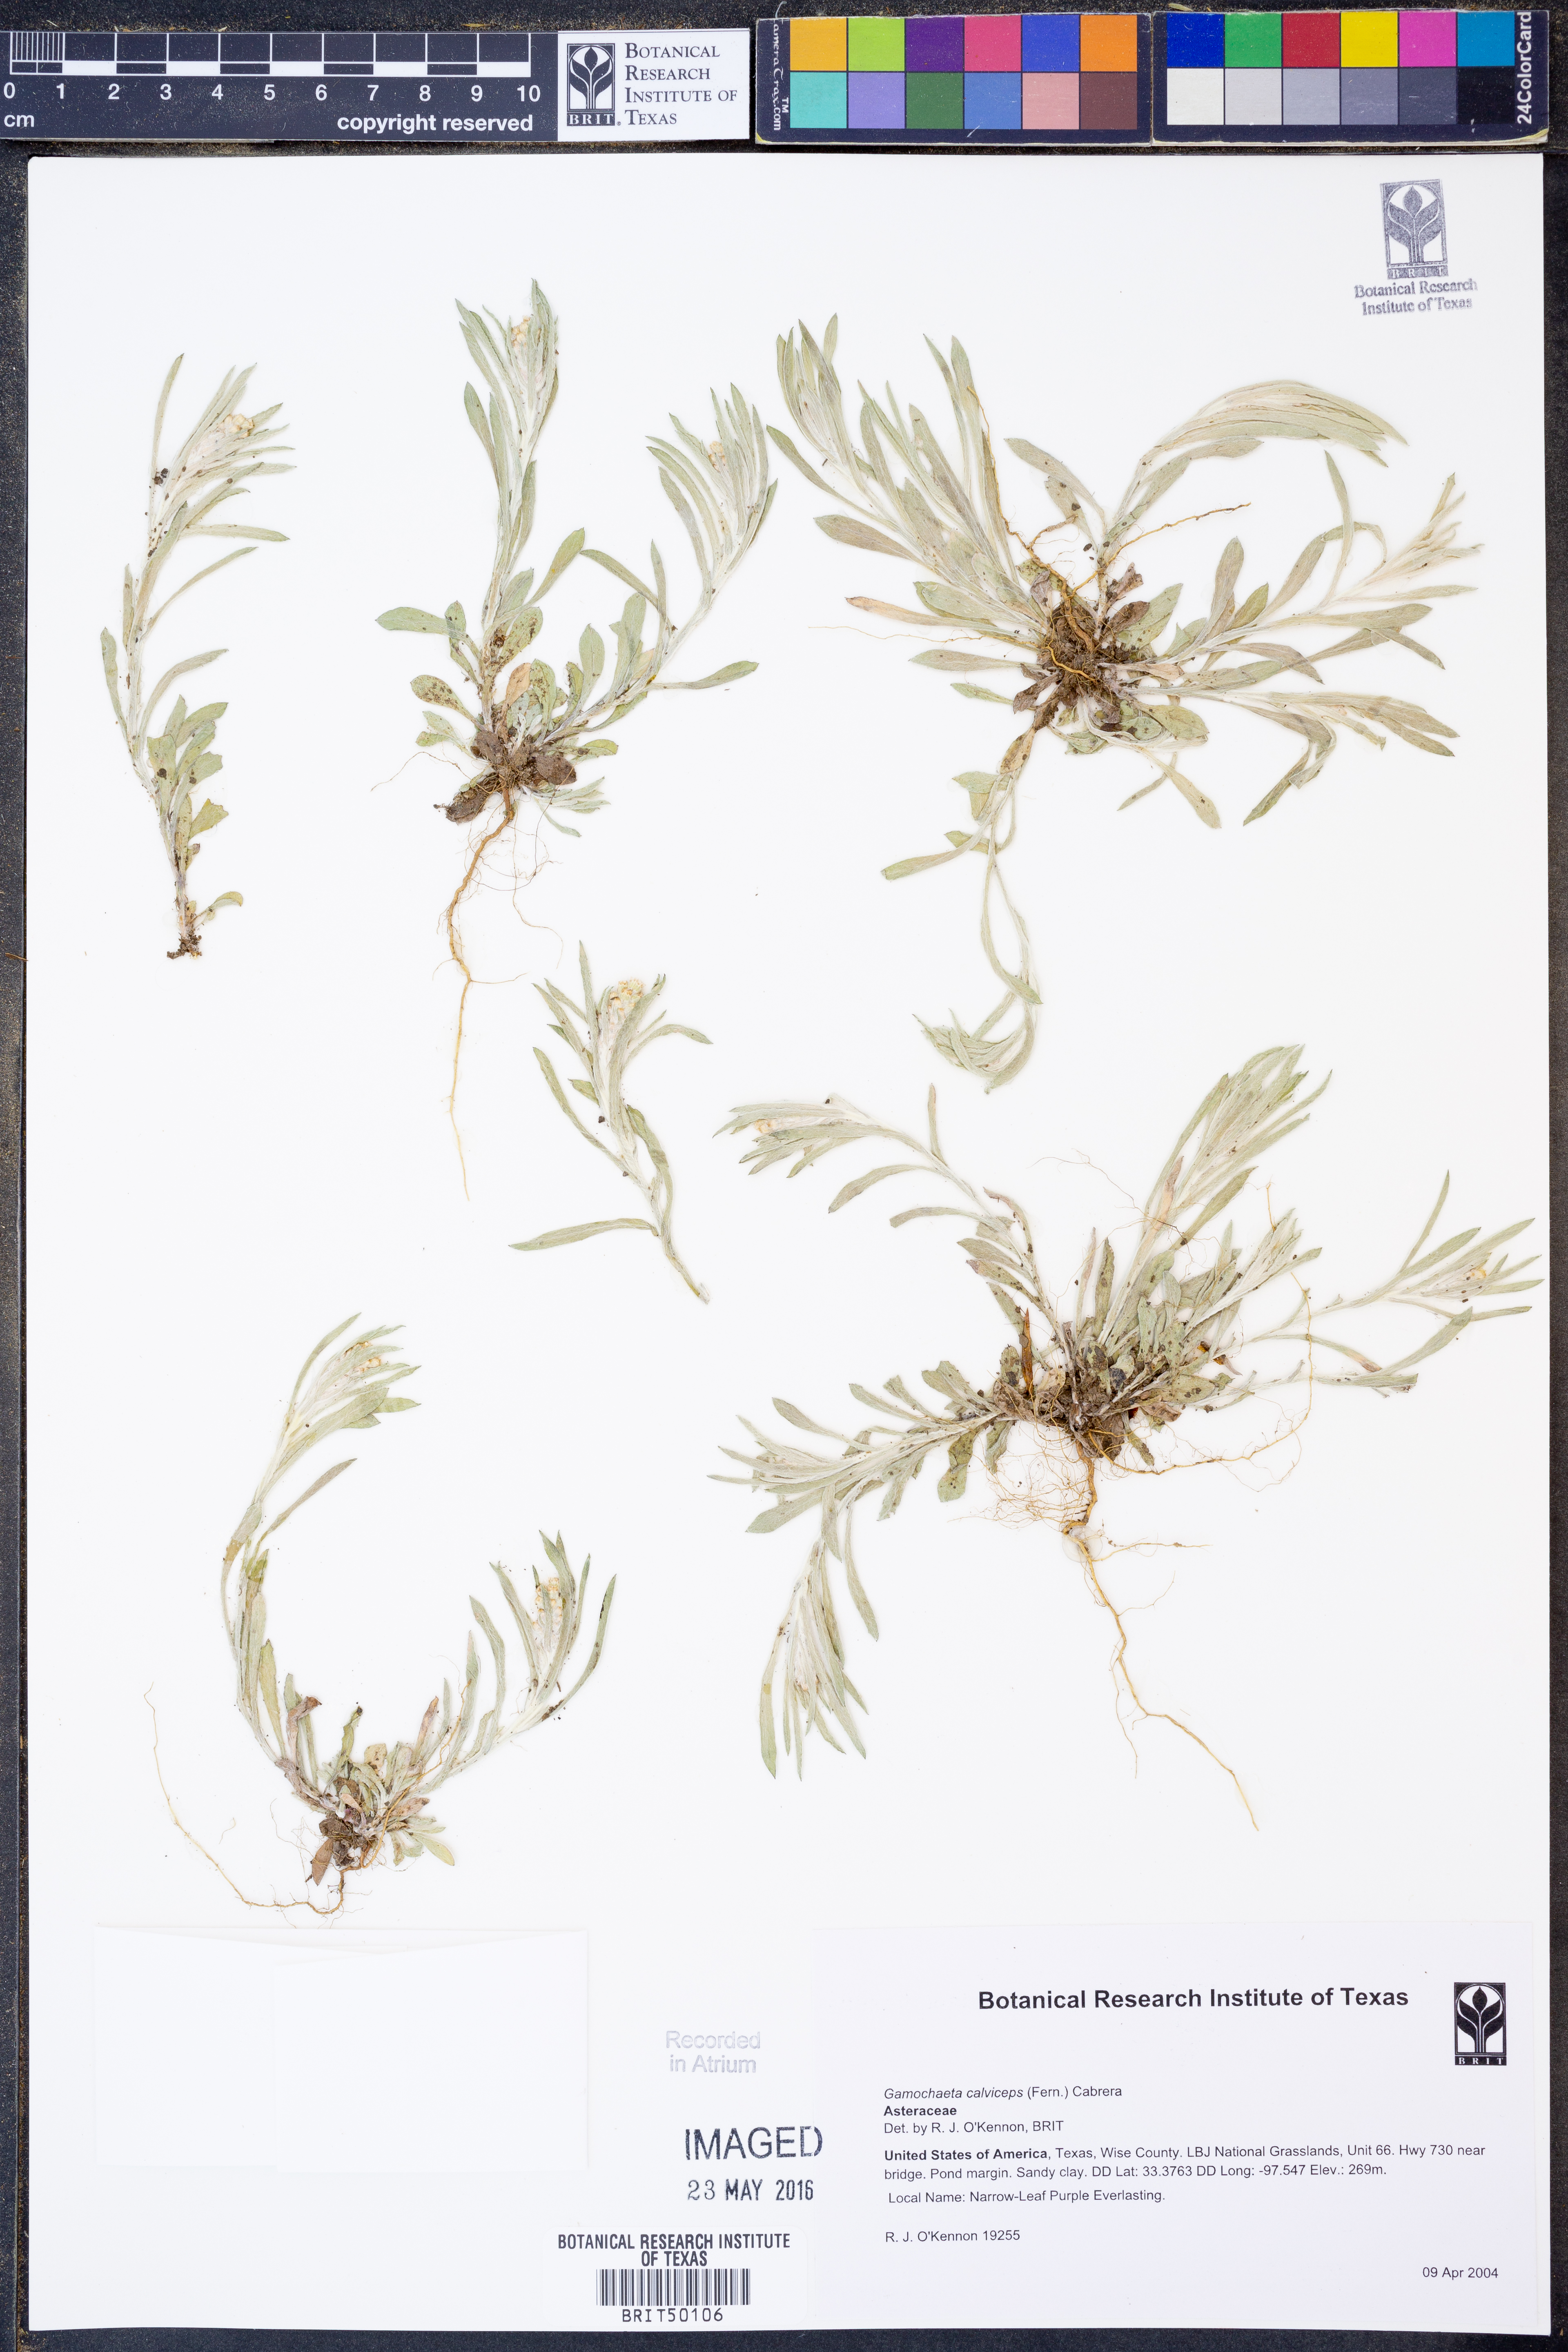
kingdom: Plantae
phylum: Tracheophyta
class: Magnoliopsida
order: Asterales
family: Asteraceae
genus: Gamochaeta
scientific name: Gamochaeta calviceps
